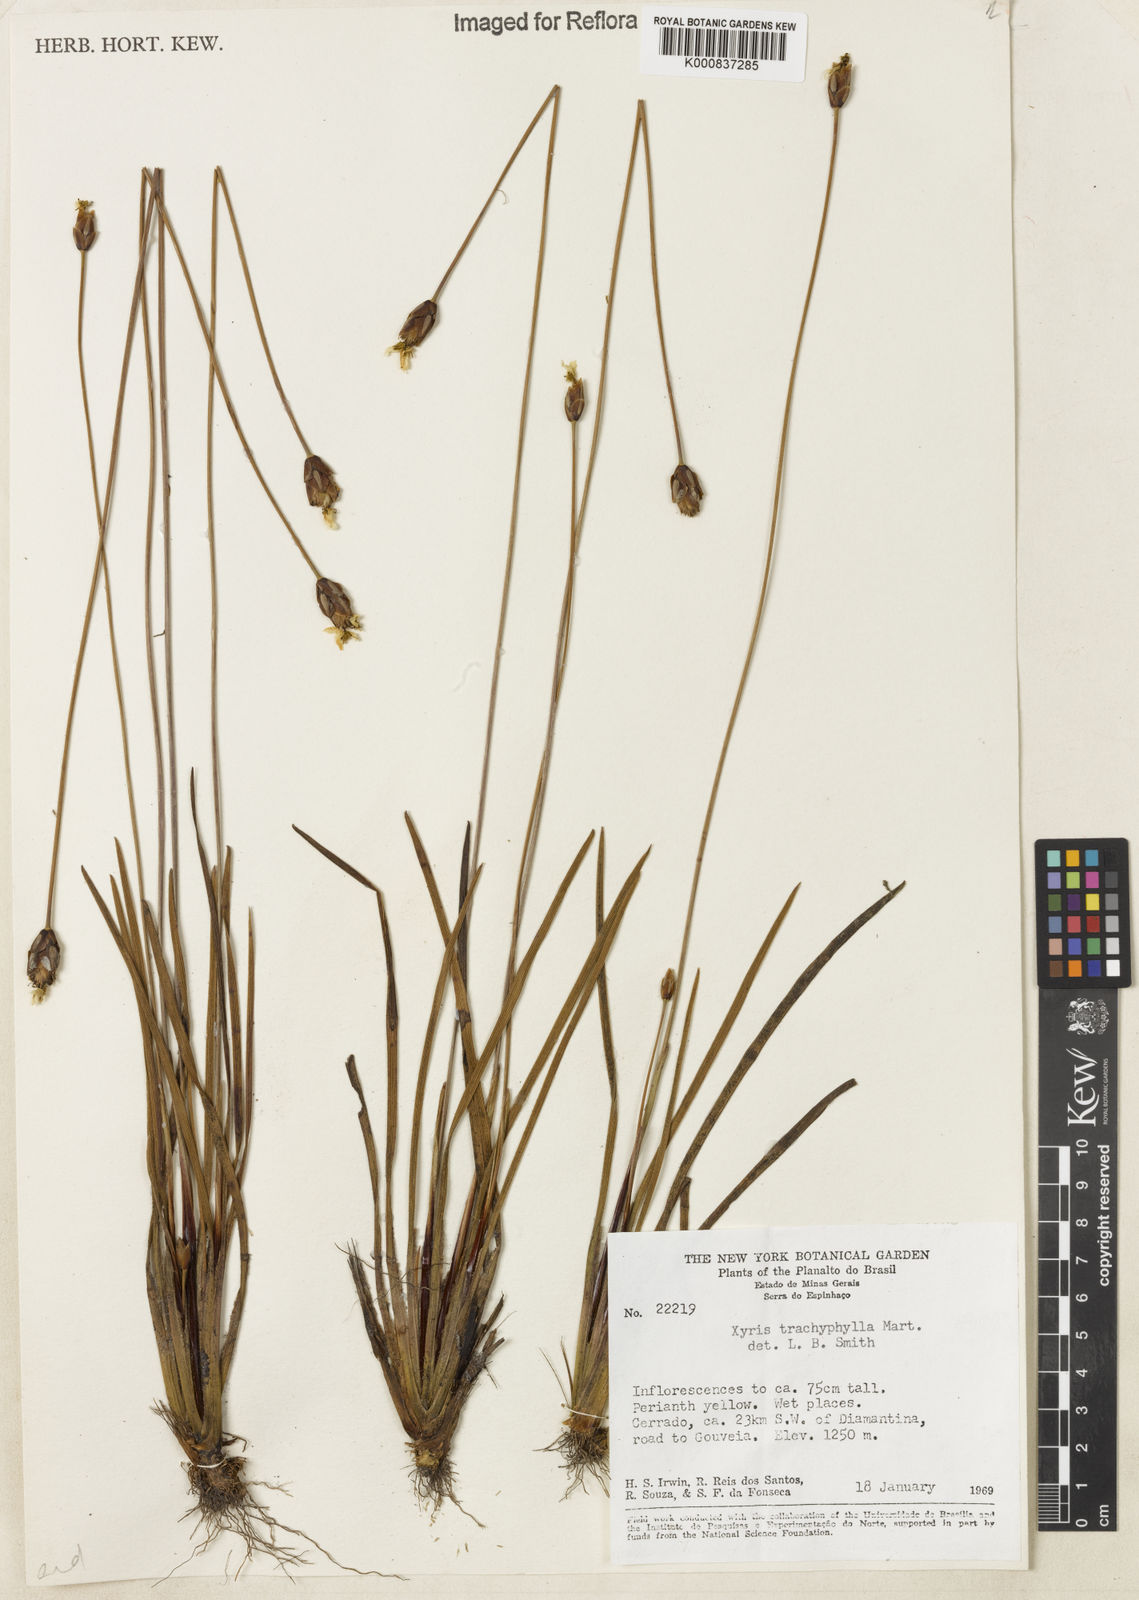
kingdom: Plantae
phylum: Tracheophyta
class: Liliopsida
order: Poales
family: Xyridaceae
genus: Xyris
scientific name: Xyris trachyphylla
